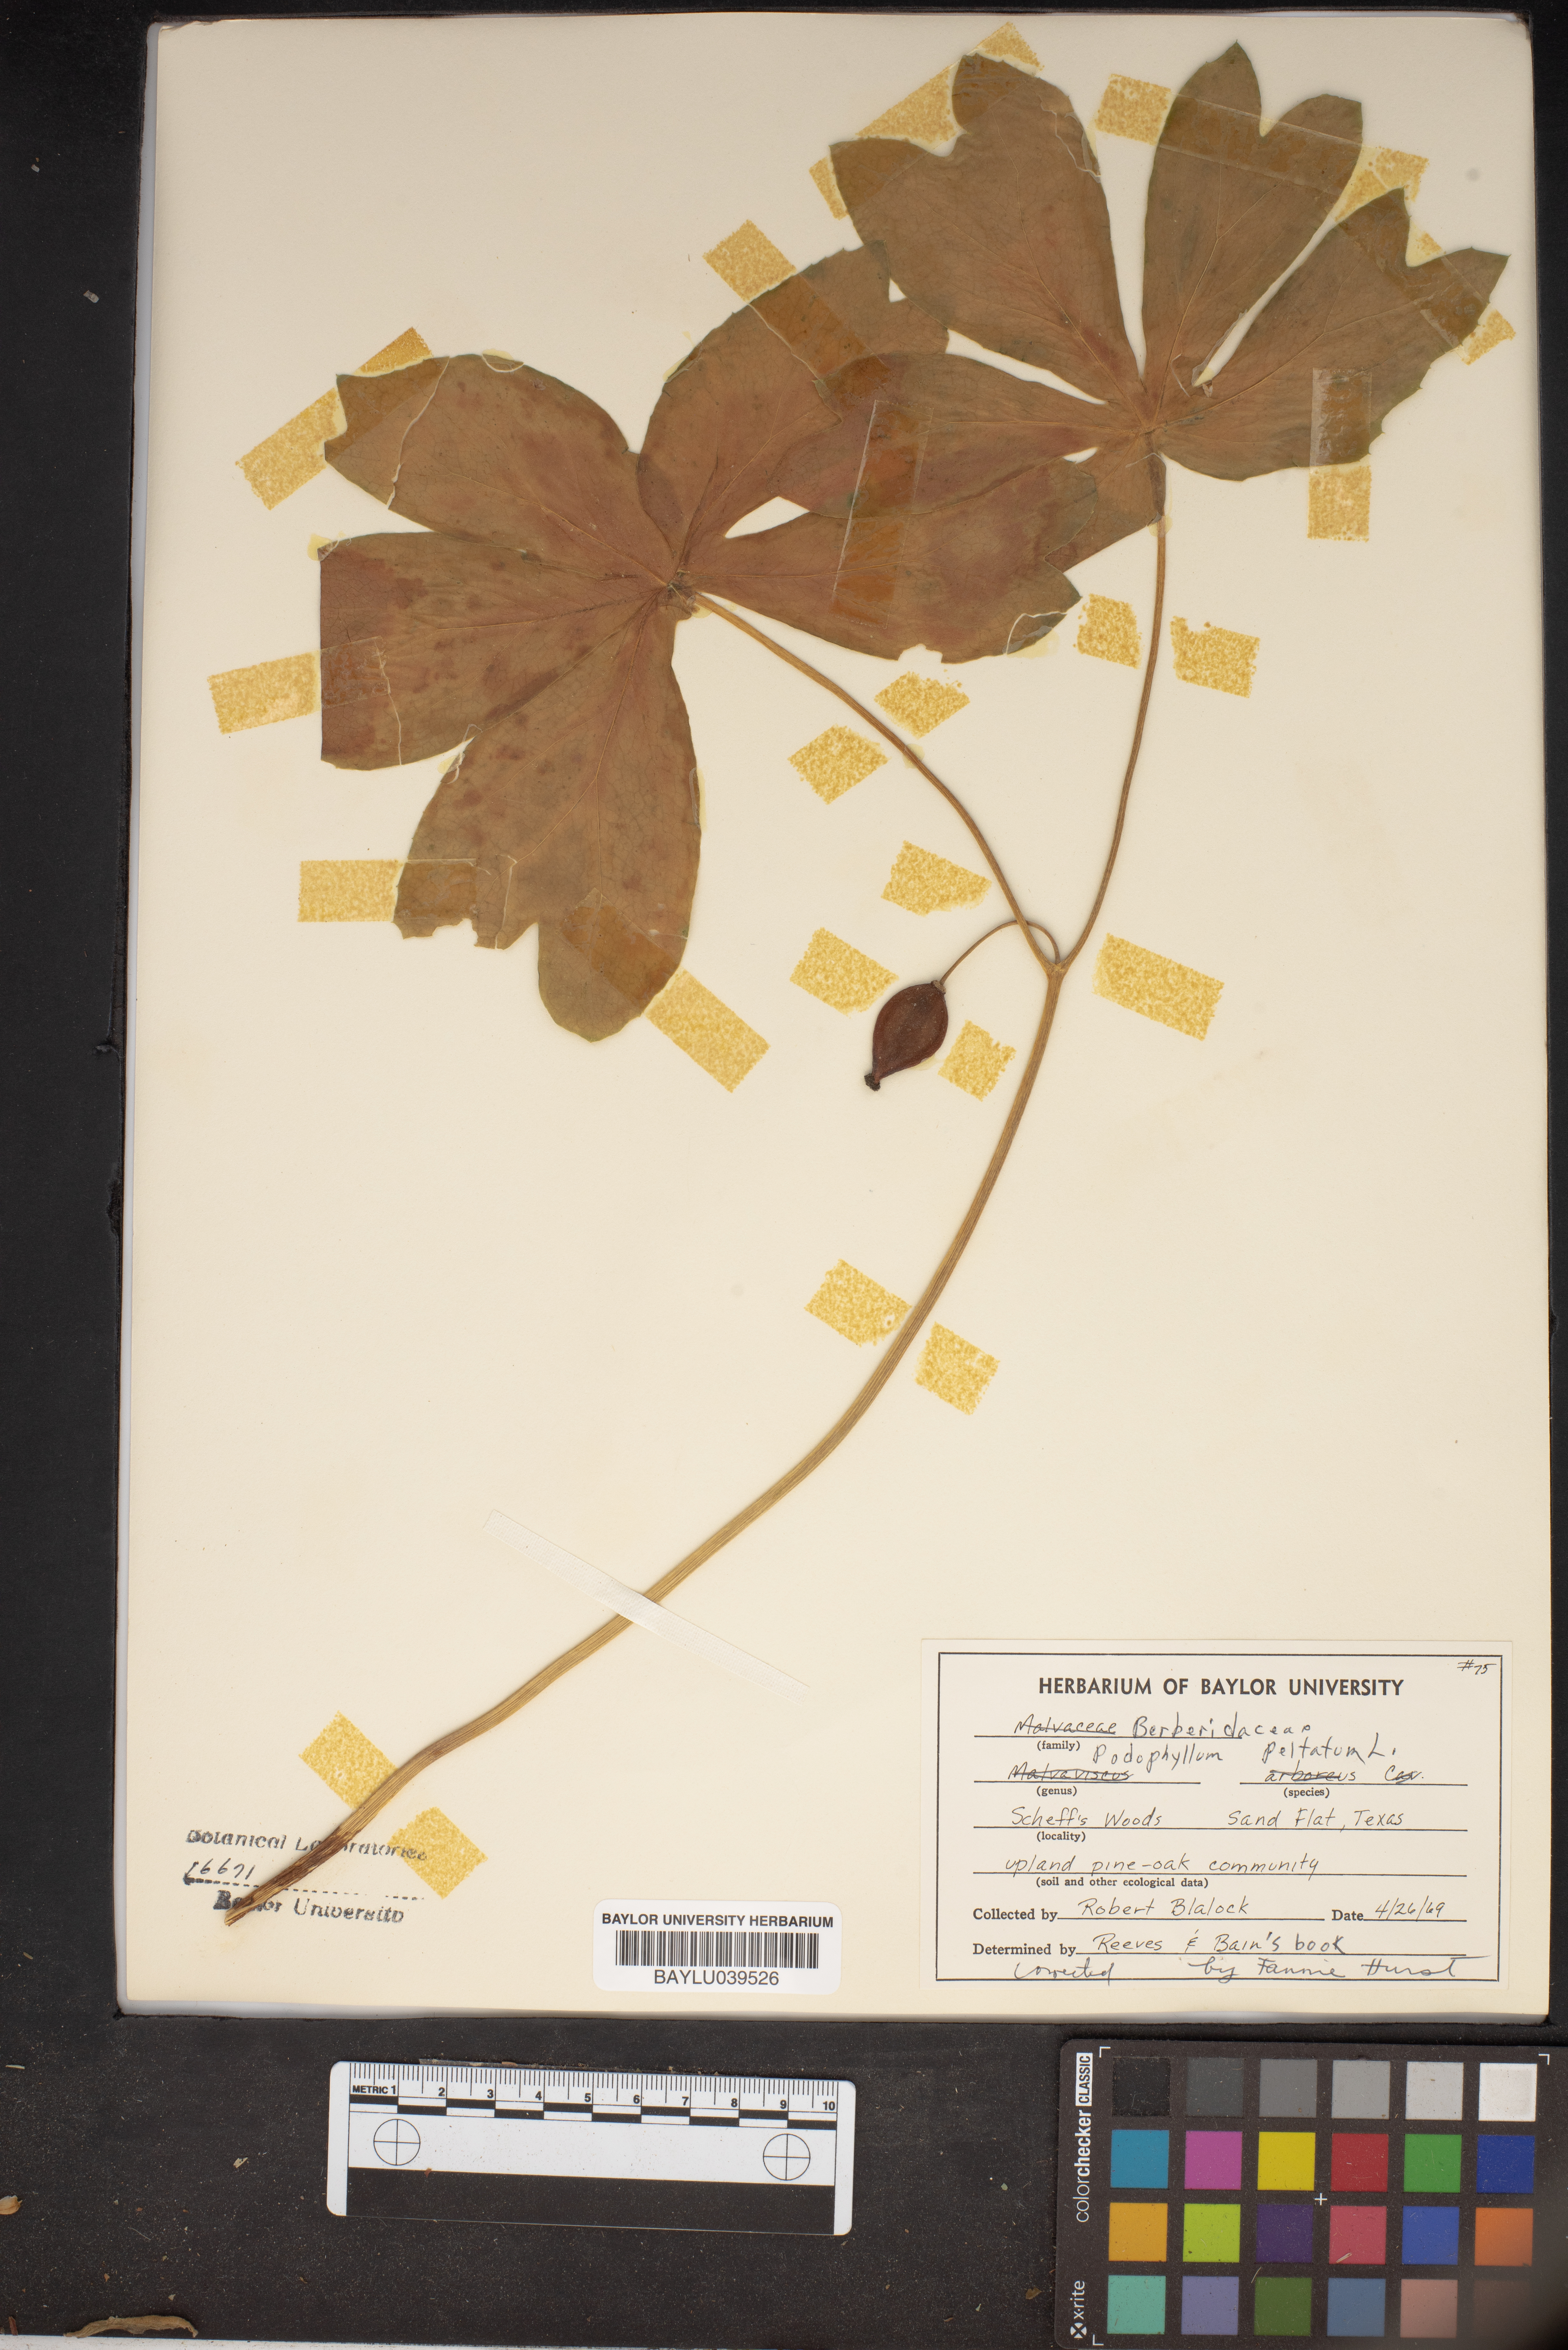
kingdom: Plantae
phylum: Tracheophyta
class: Magnoliopsida
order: Ranunculales
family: Berberidaceae
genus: Podophyllum
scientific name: Podophyllum peltatum
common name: Wild mandrake
